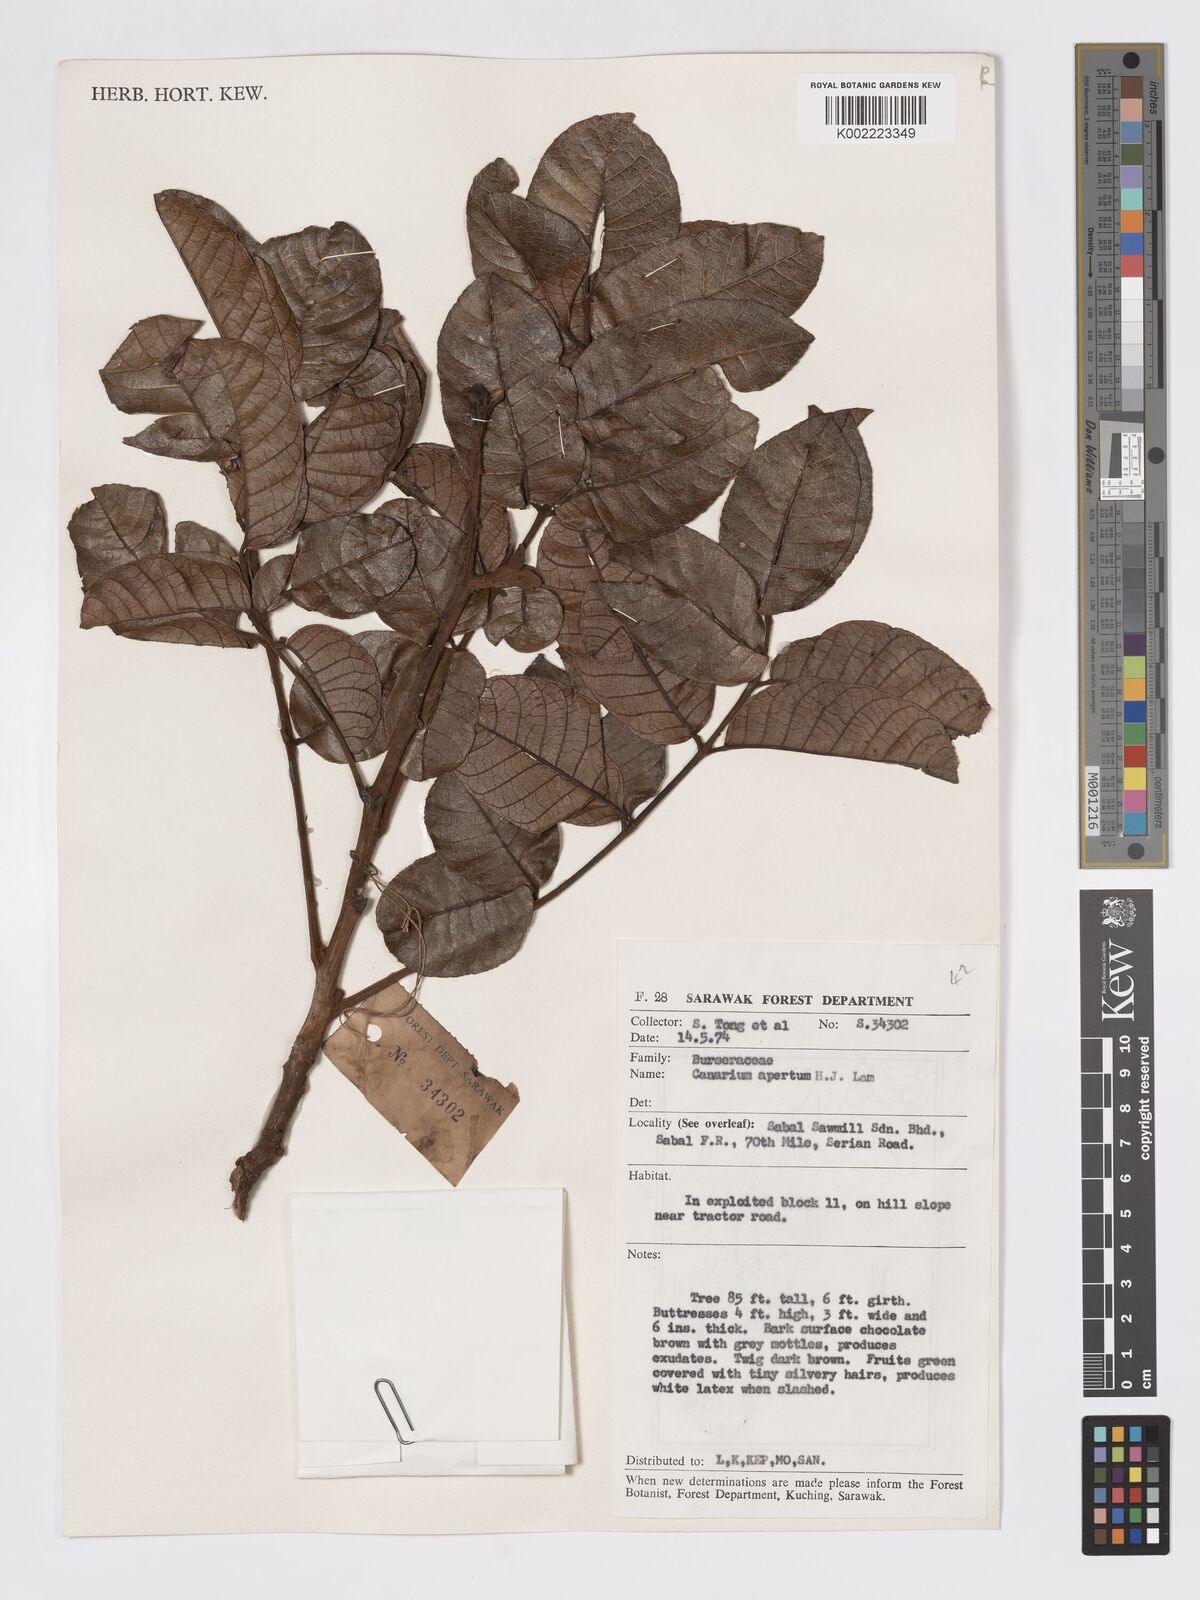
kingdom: Plantae
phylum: Tracheophyta
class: Magnoliopsida
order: Sapindales
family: Burseraceae
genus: Canarium
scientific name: Canarium apertum
